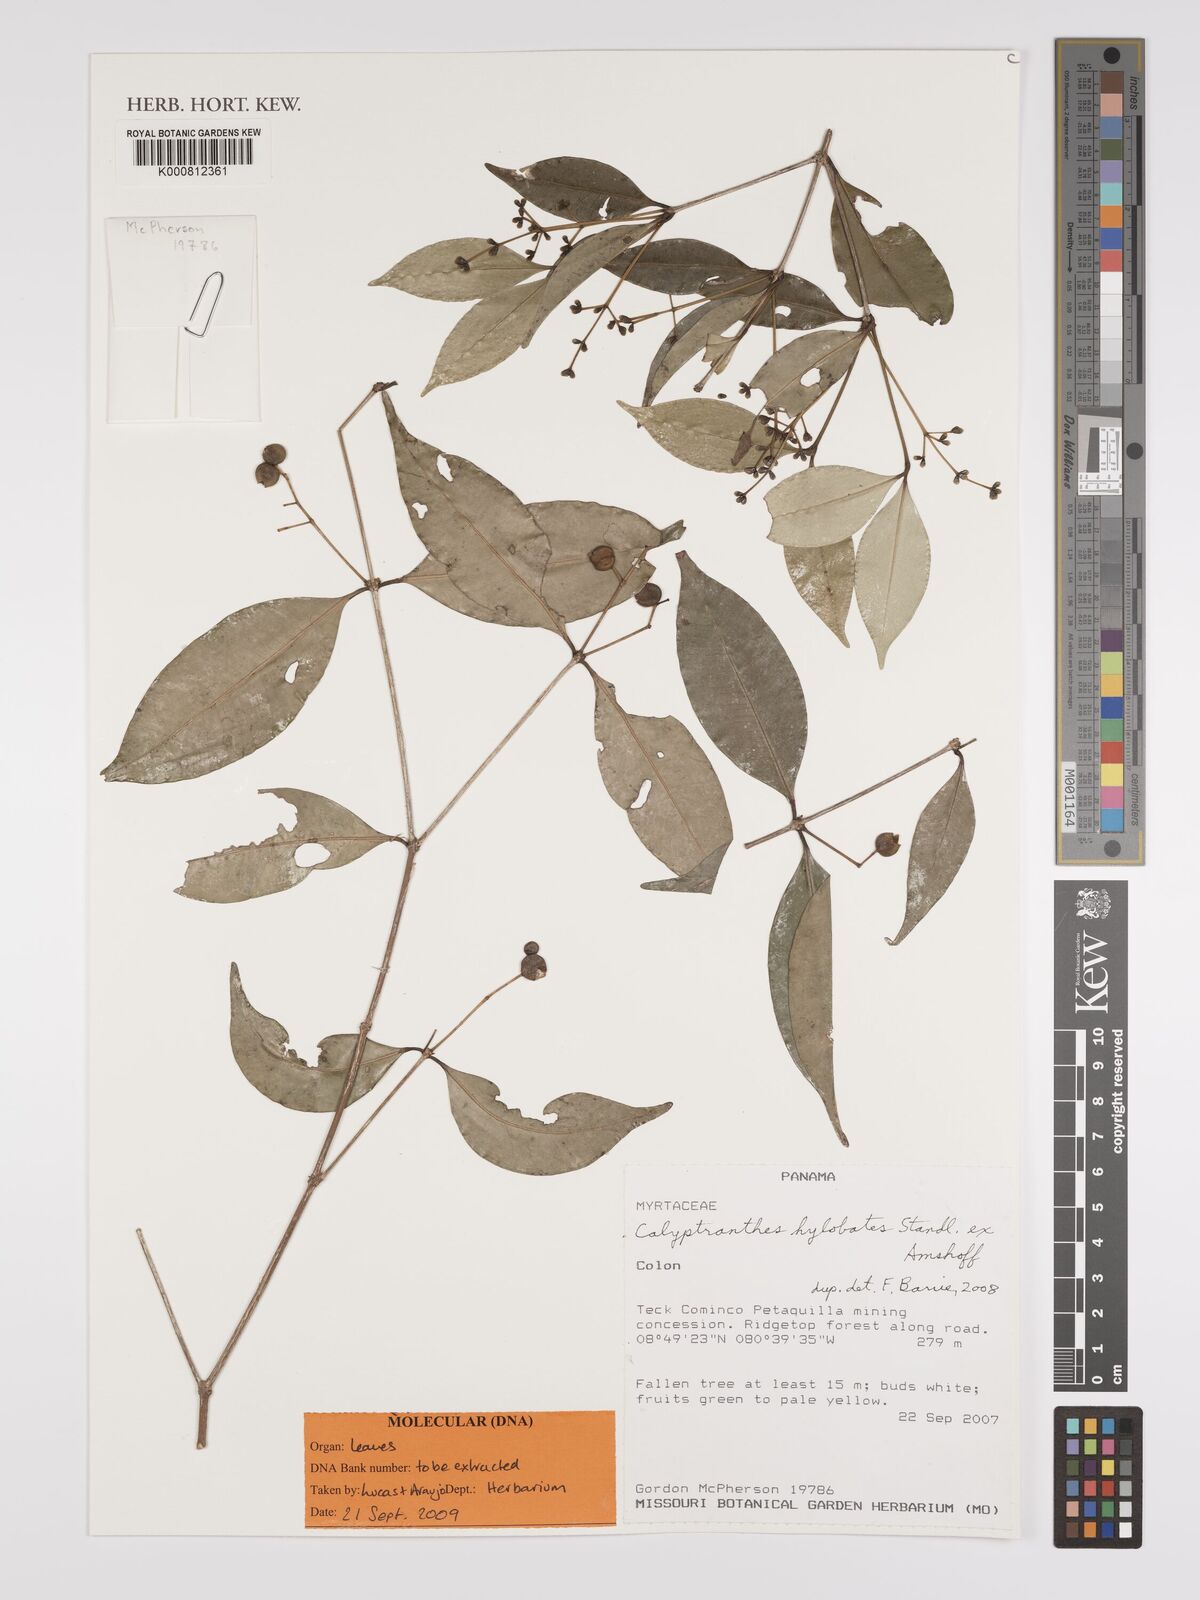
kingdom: Plantae
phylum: Tracheophyta
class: Magnoliopsida
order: Myrtales
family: Myrtaceae
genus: Myrcia
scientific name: Myrcia hylobates
